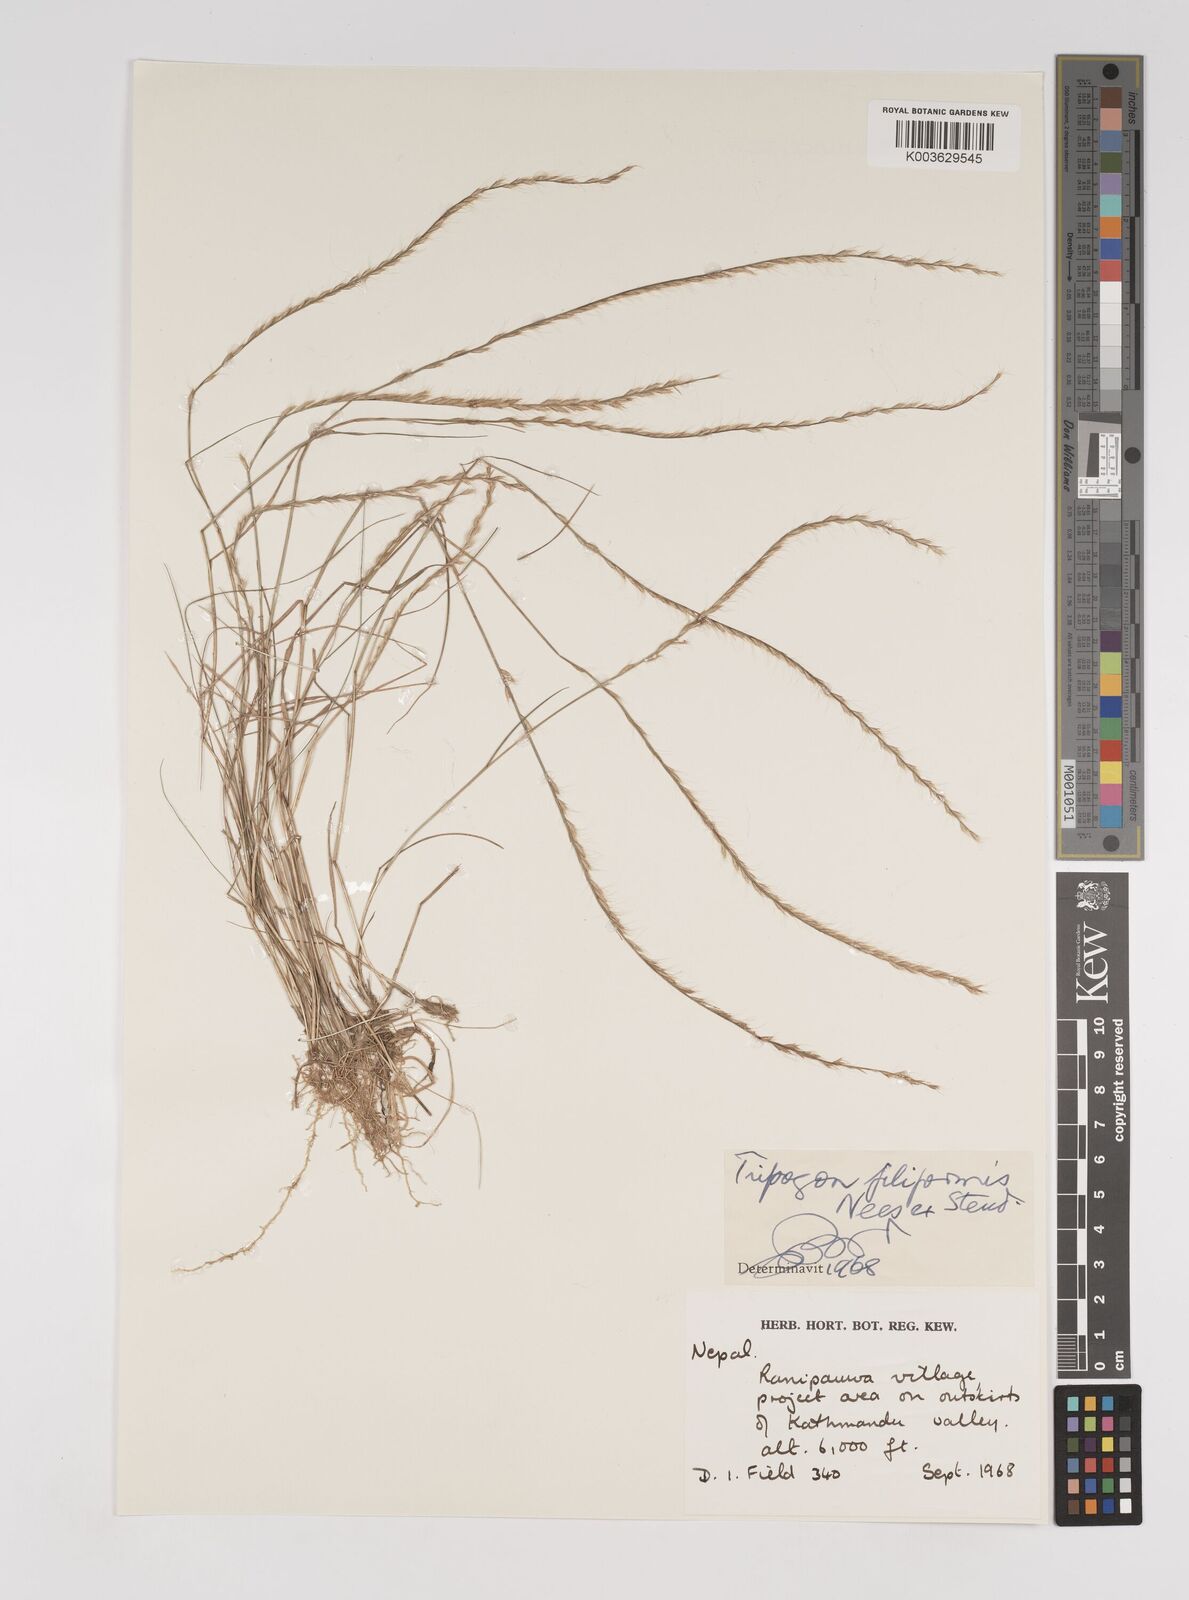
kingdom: Plantae
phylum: Tracheophyta
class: Liliopsida
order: Poales
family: Poaceae
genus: Tripogon
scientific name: Tripogon filiformis
